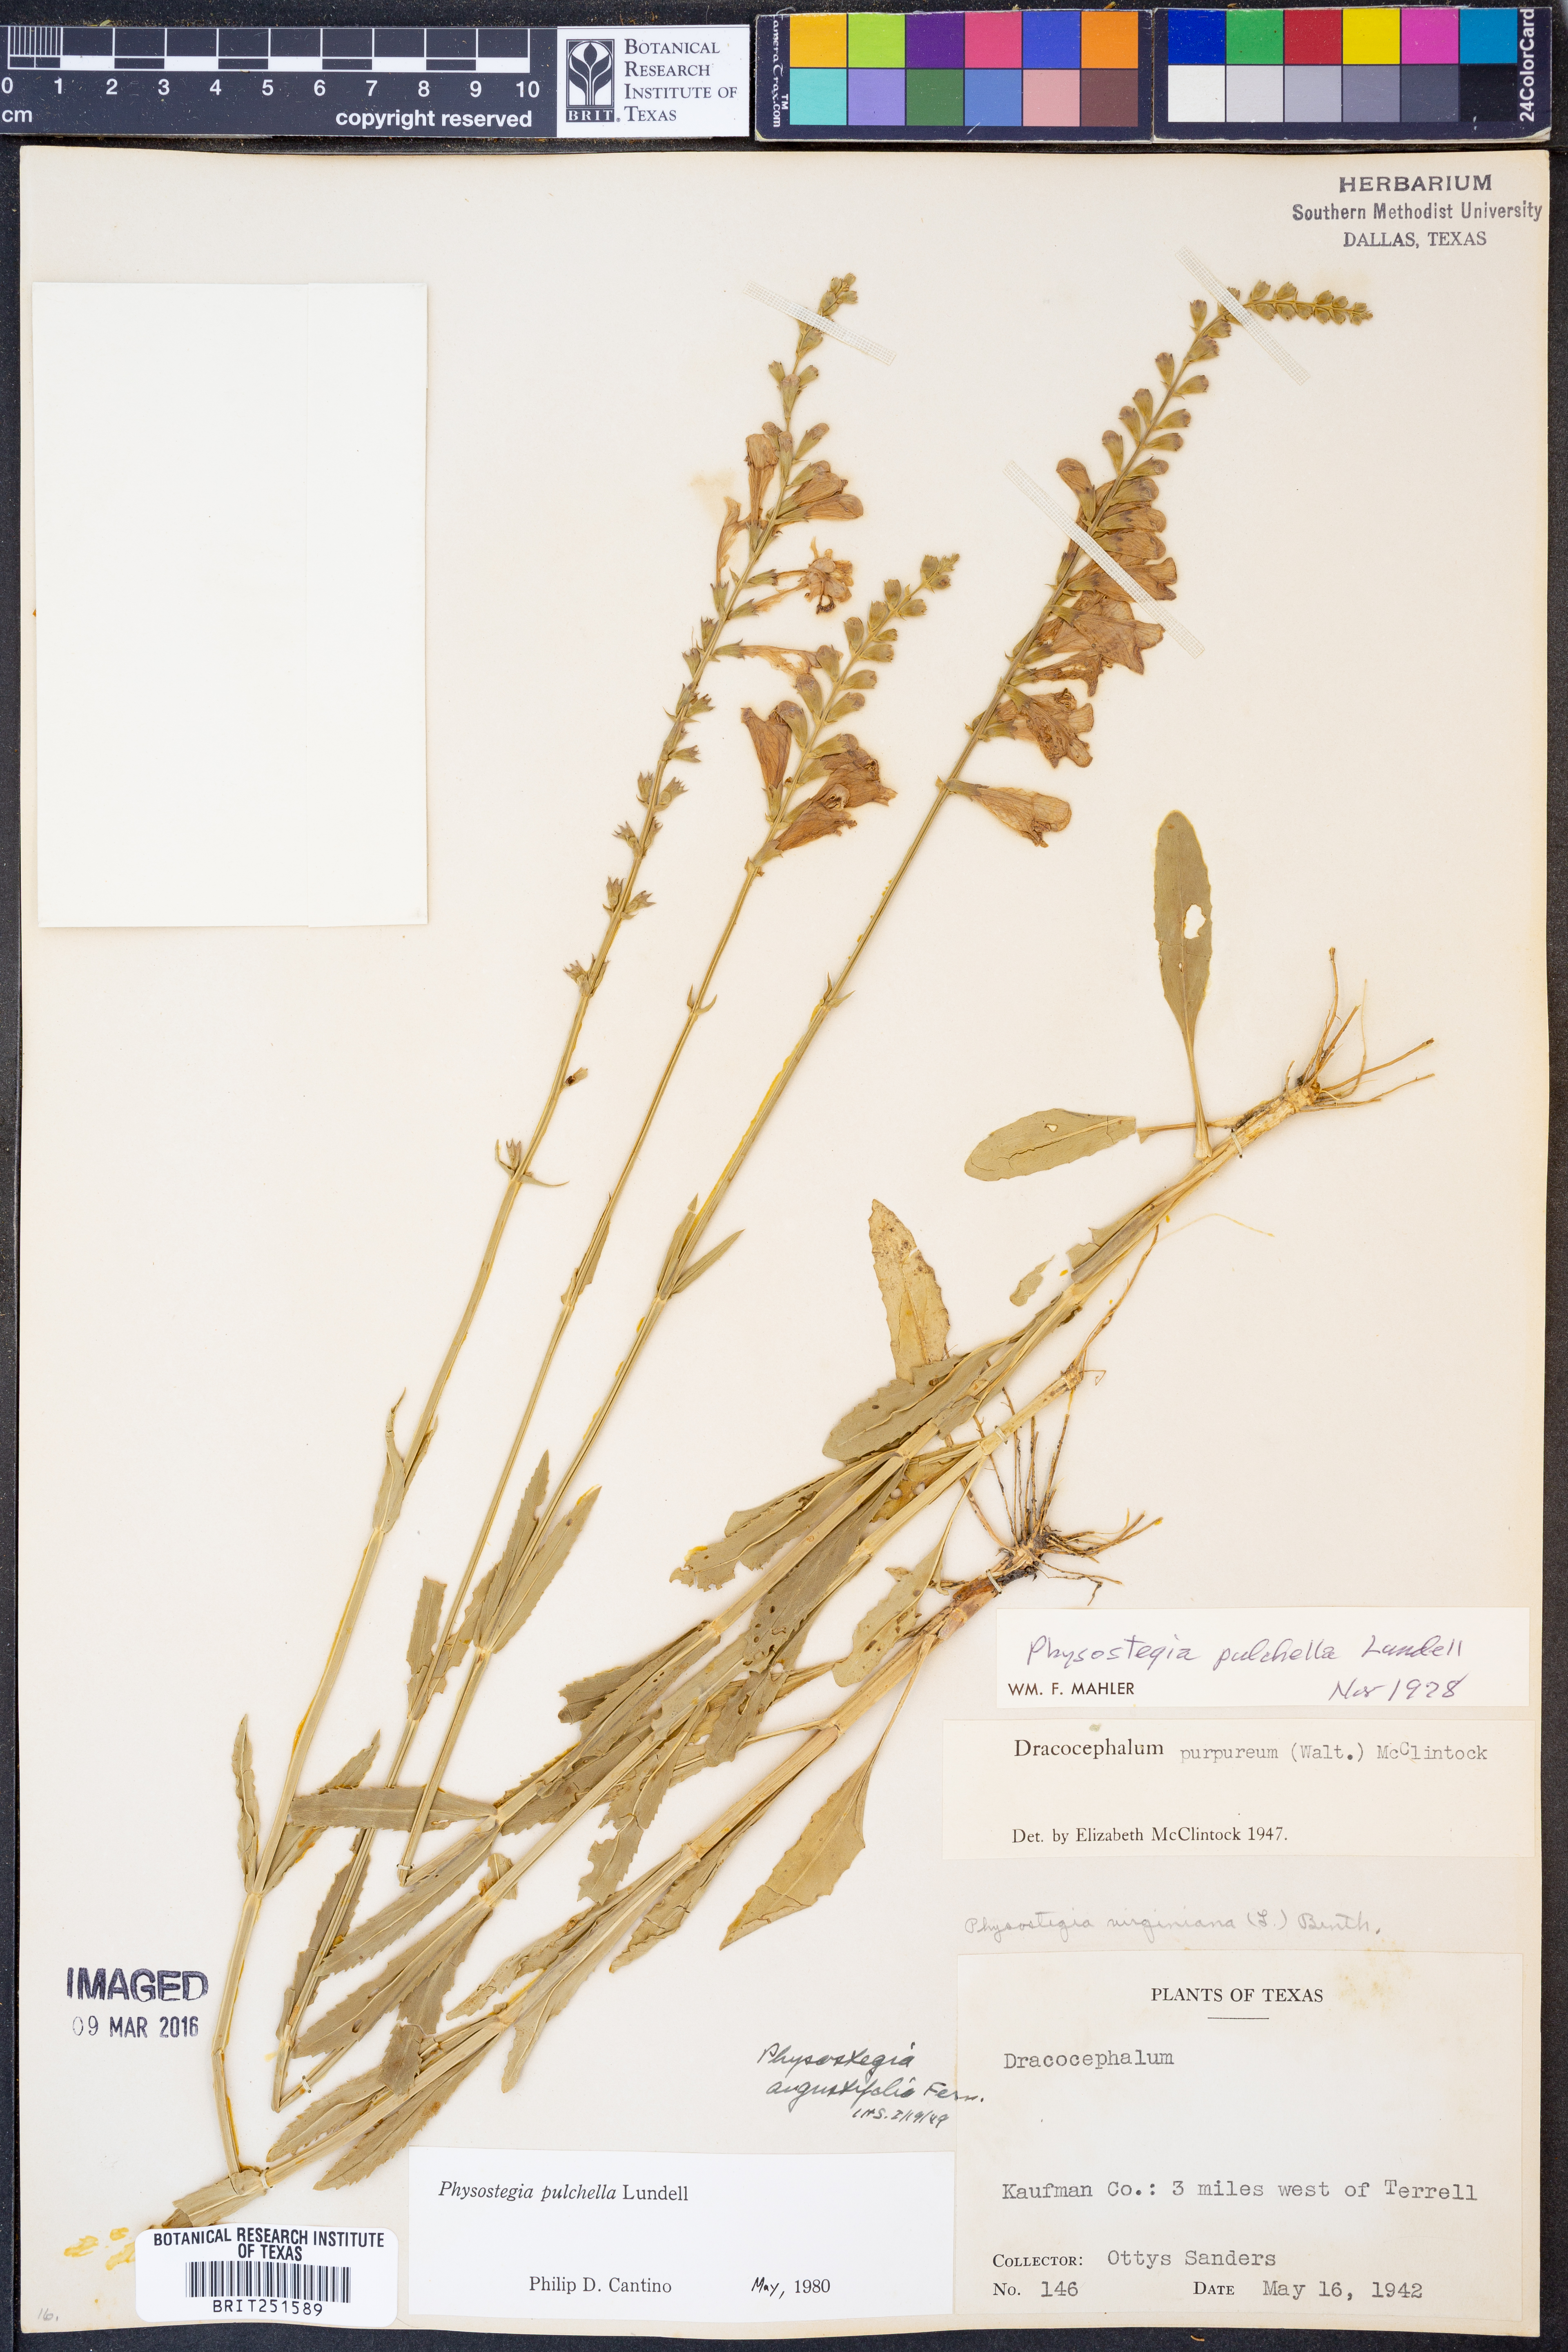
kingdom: Plantae
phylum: Tracheophyta
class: Magnoliopsida
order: Lamiales
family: Lamiaceae
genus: Physostegia
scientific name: Physostegia pulchella
